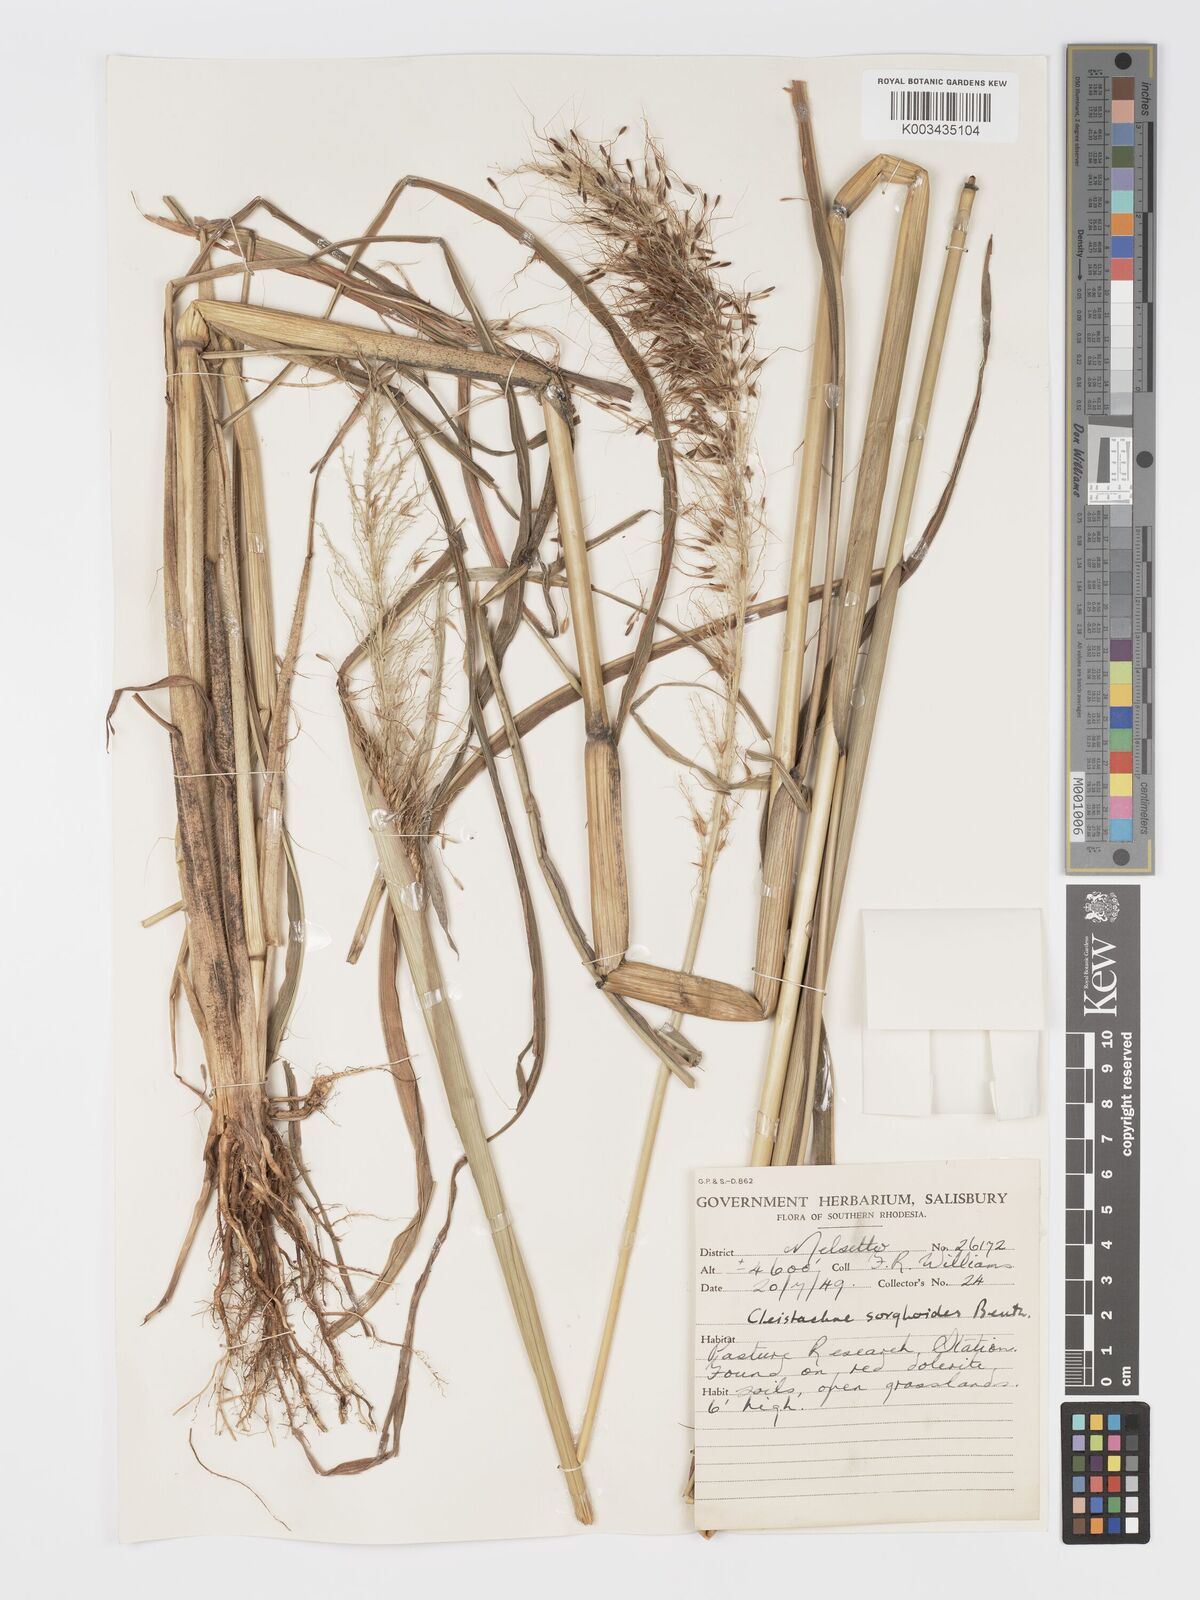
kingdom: Plantae
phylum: Tracheophyta
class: Liliopsida
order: Poales
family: Poaceae
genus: Cleistachne
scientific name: Cleistachne sorghoides
